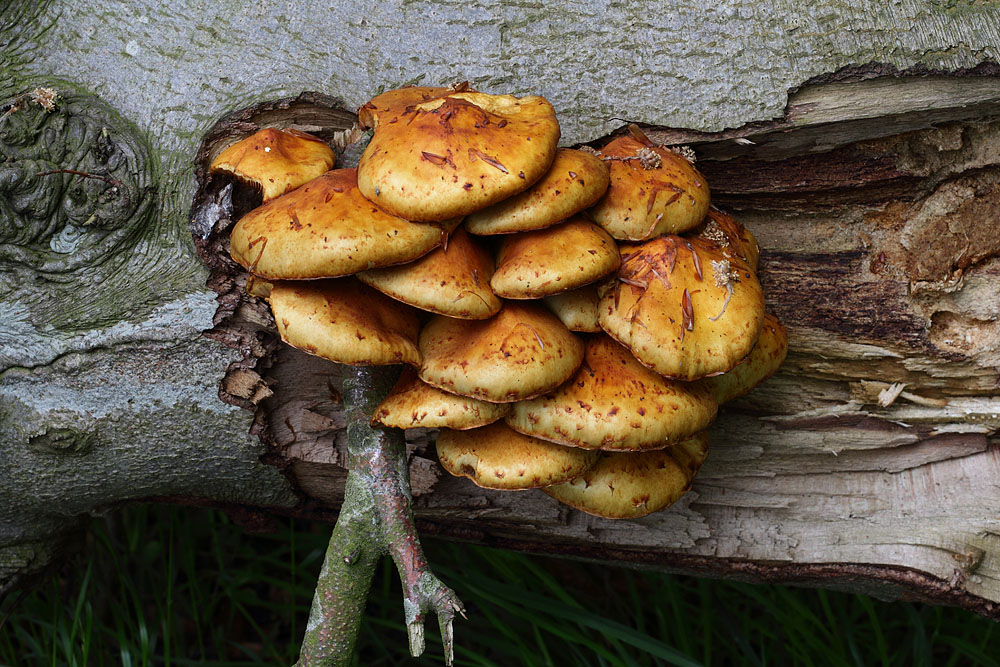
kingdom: Fungi
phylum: Basidiomycota
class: Agaricomycetes
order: Agaricales
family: Strophariaceae
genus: Pholiota
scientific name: Pholiota adiposa
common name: højtsiddende skælhat
